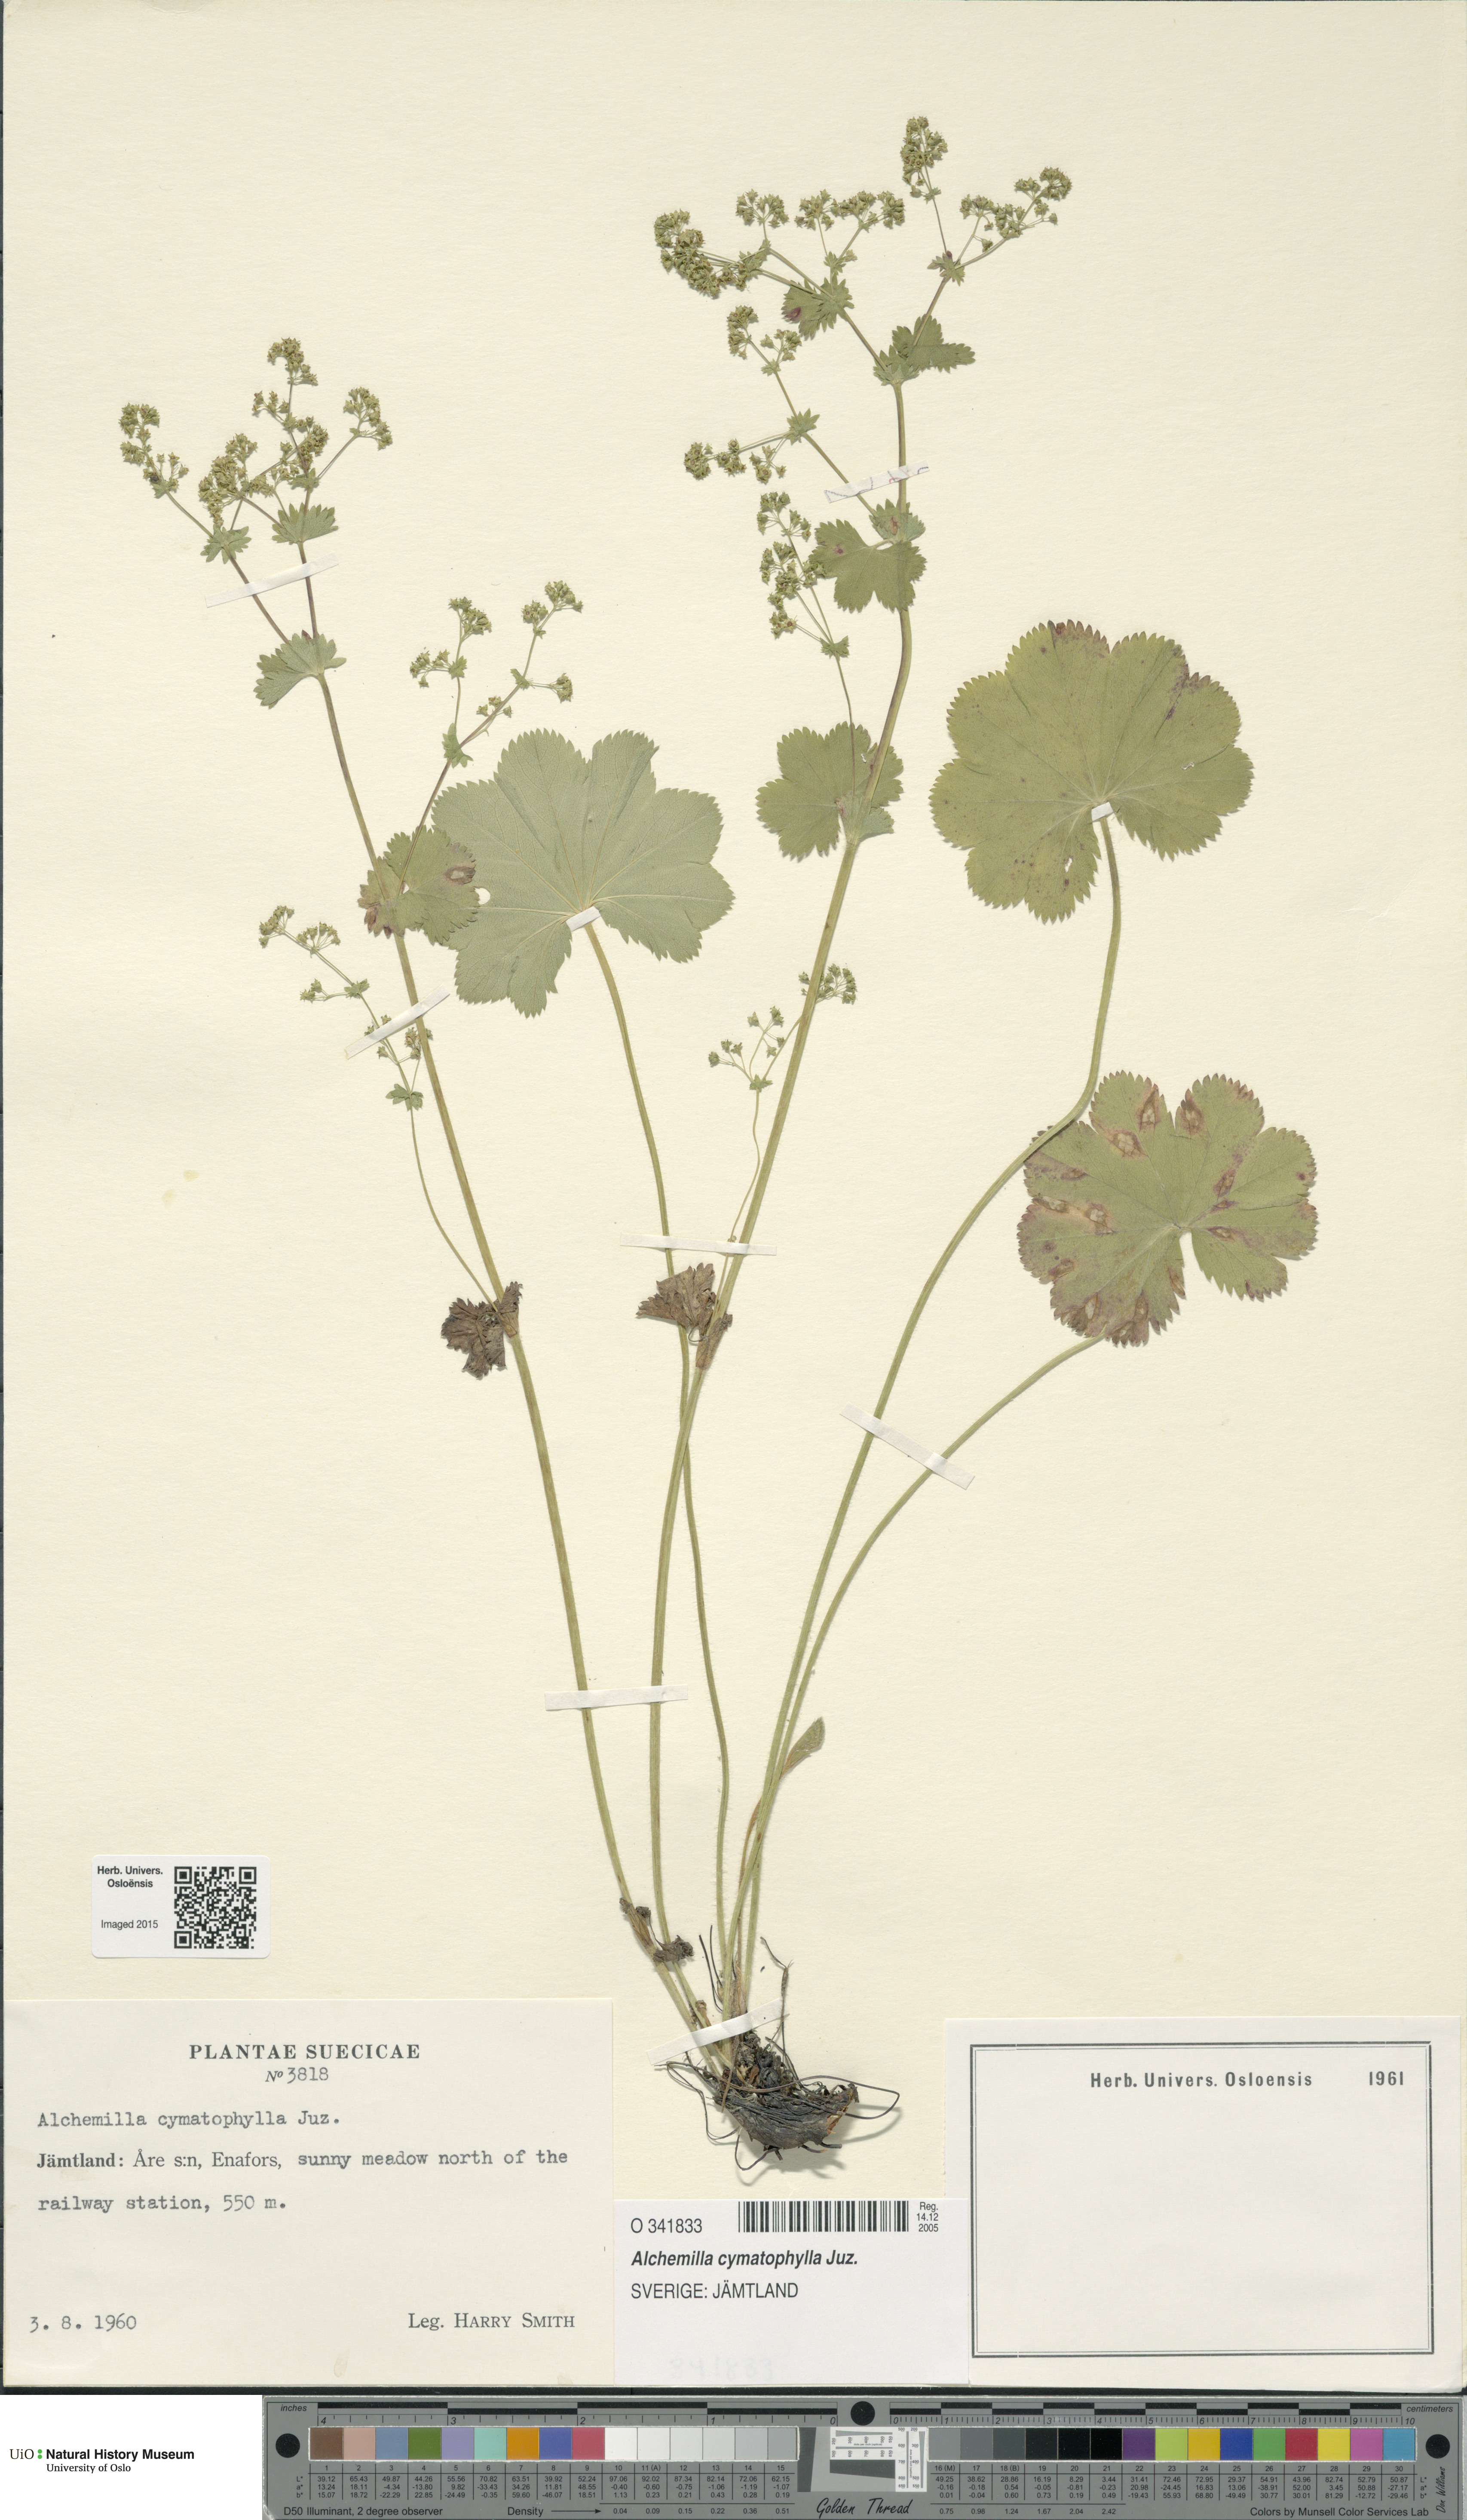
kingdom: Plantae
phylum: Tracheophyta
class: Magnoliopsida
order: Rosales
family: Rosaceae
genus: Alchemilla
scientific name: Alchemilla cymatophylla
